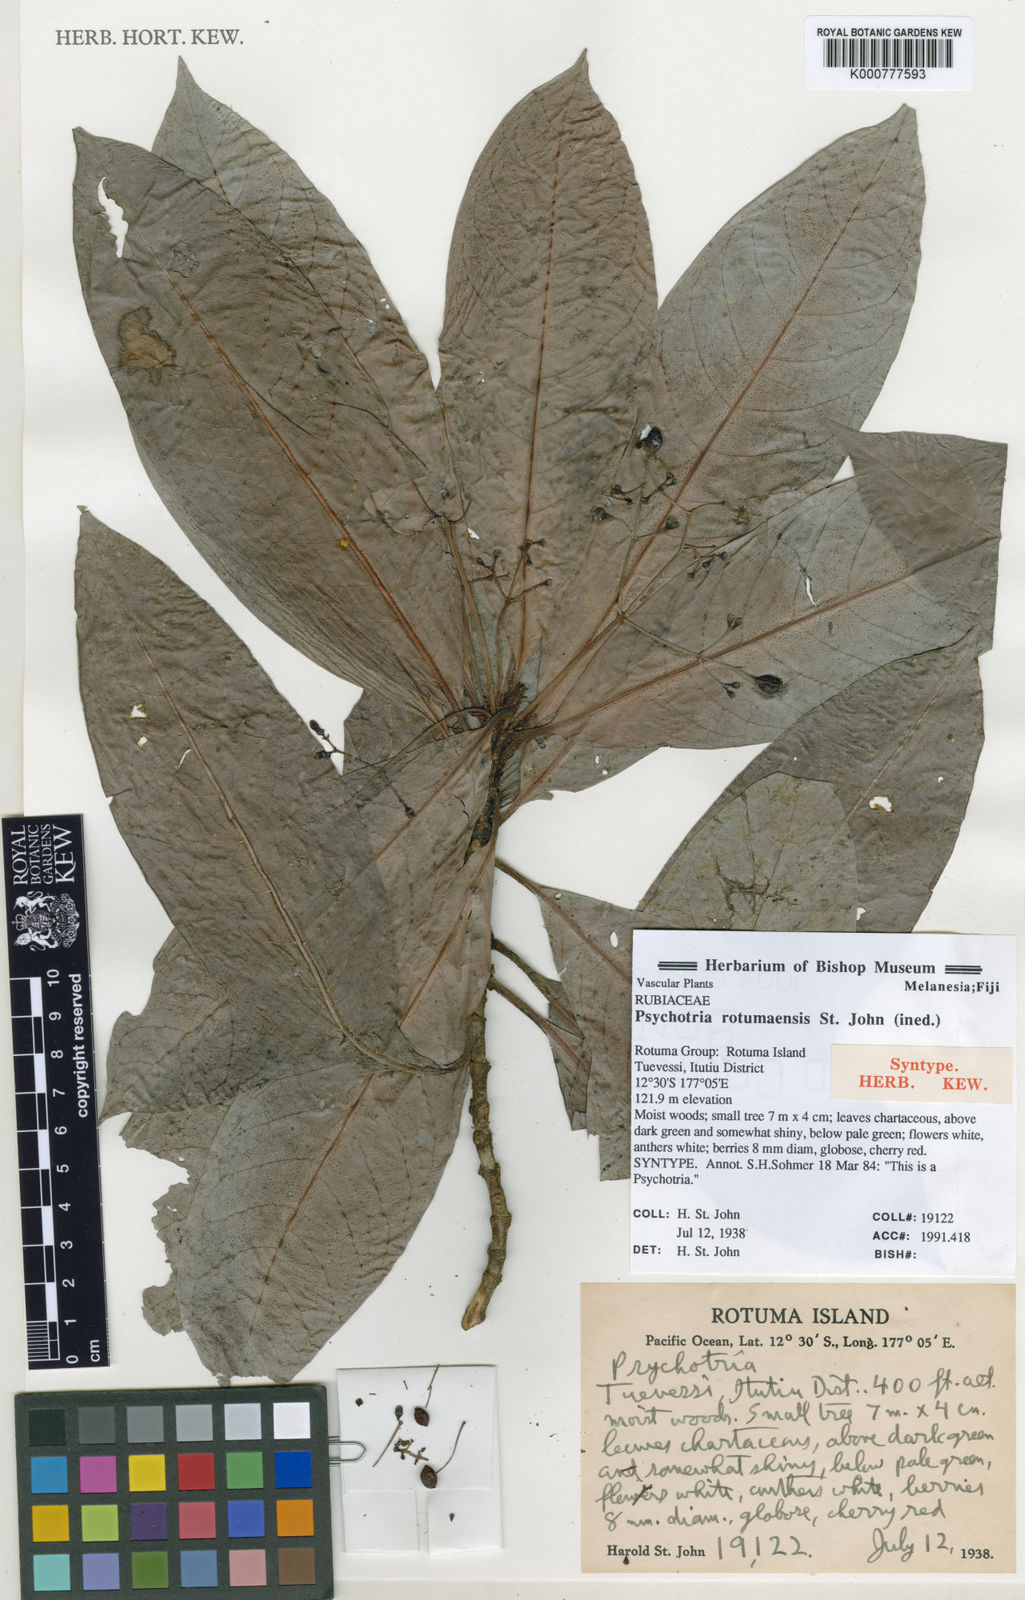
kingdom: Plantae
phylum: Tracheophyta
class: Magnoliopsida
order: Gentianales
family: Rubiaceae
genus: Psychotria
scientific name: Psychotria
